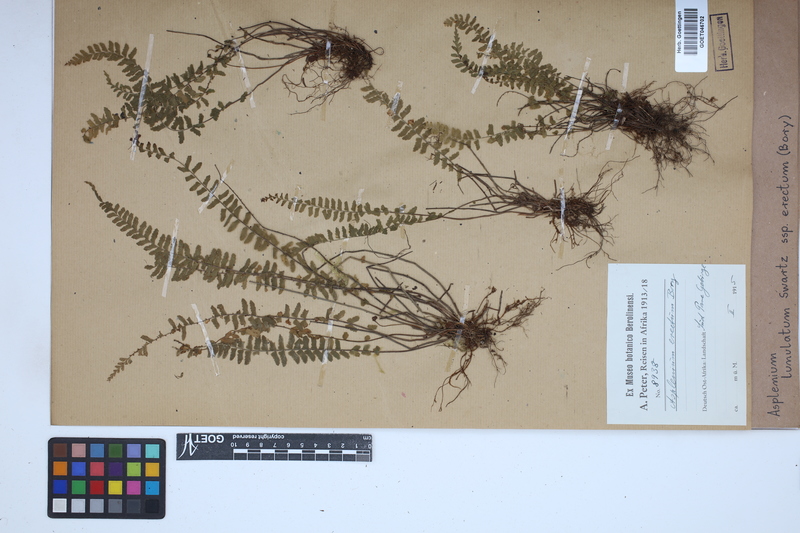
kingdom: Plantae
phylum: Tracheophyta
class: Polypodiopsida
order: Polypodiales
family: Aspleniaceae
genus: Asplenium
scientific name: Asplenium erectum
